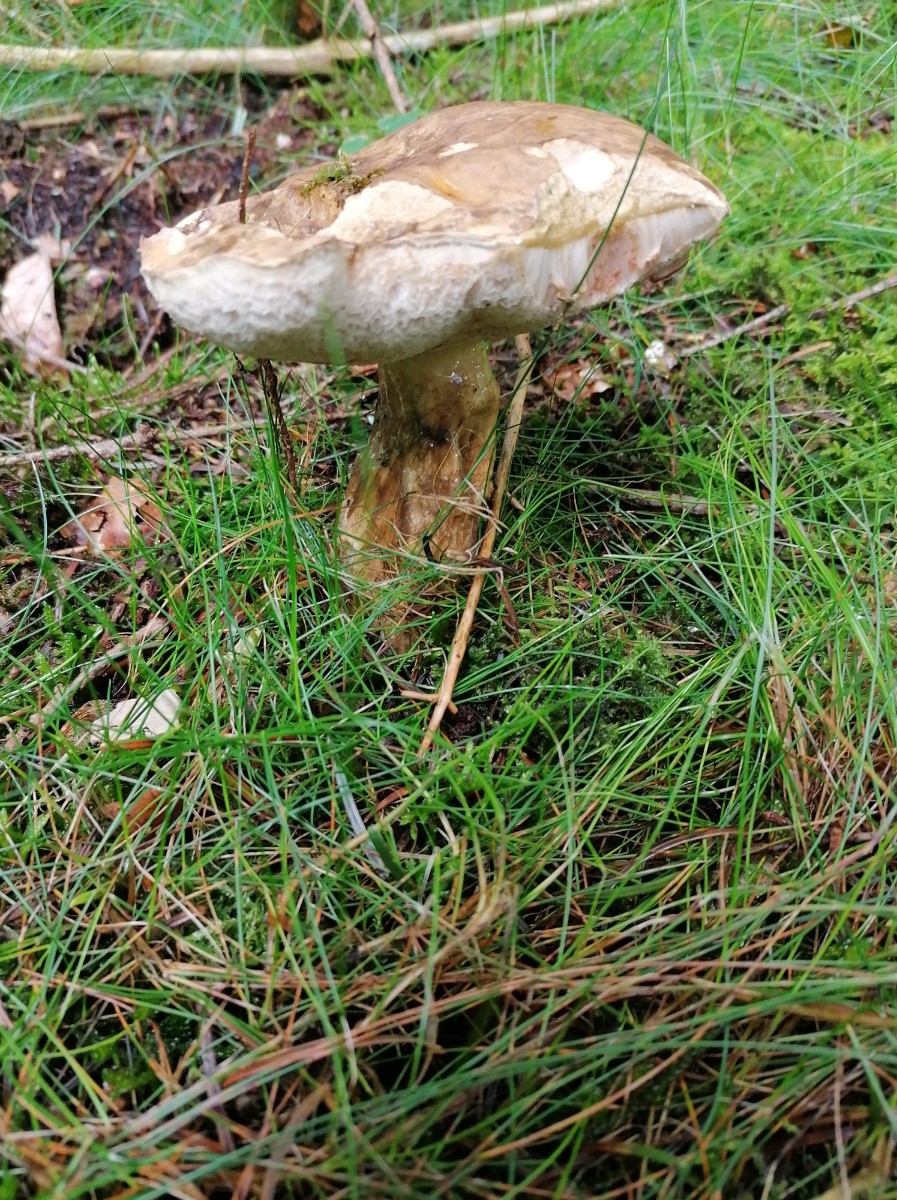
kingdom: Fungi
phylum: Basidiomycota
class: Agaricomycetes
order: Boletales
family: Boletaceae
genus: Tylopilus
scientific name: Tylopilus felleus
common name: galderørhat
